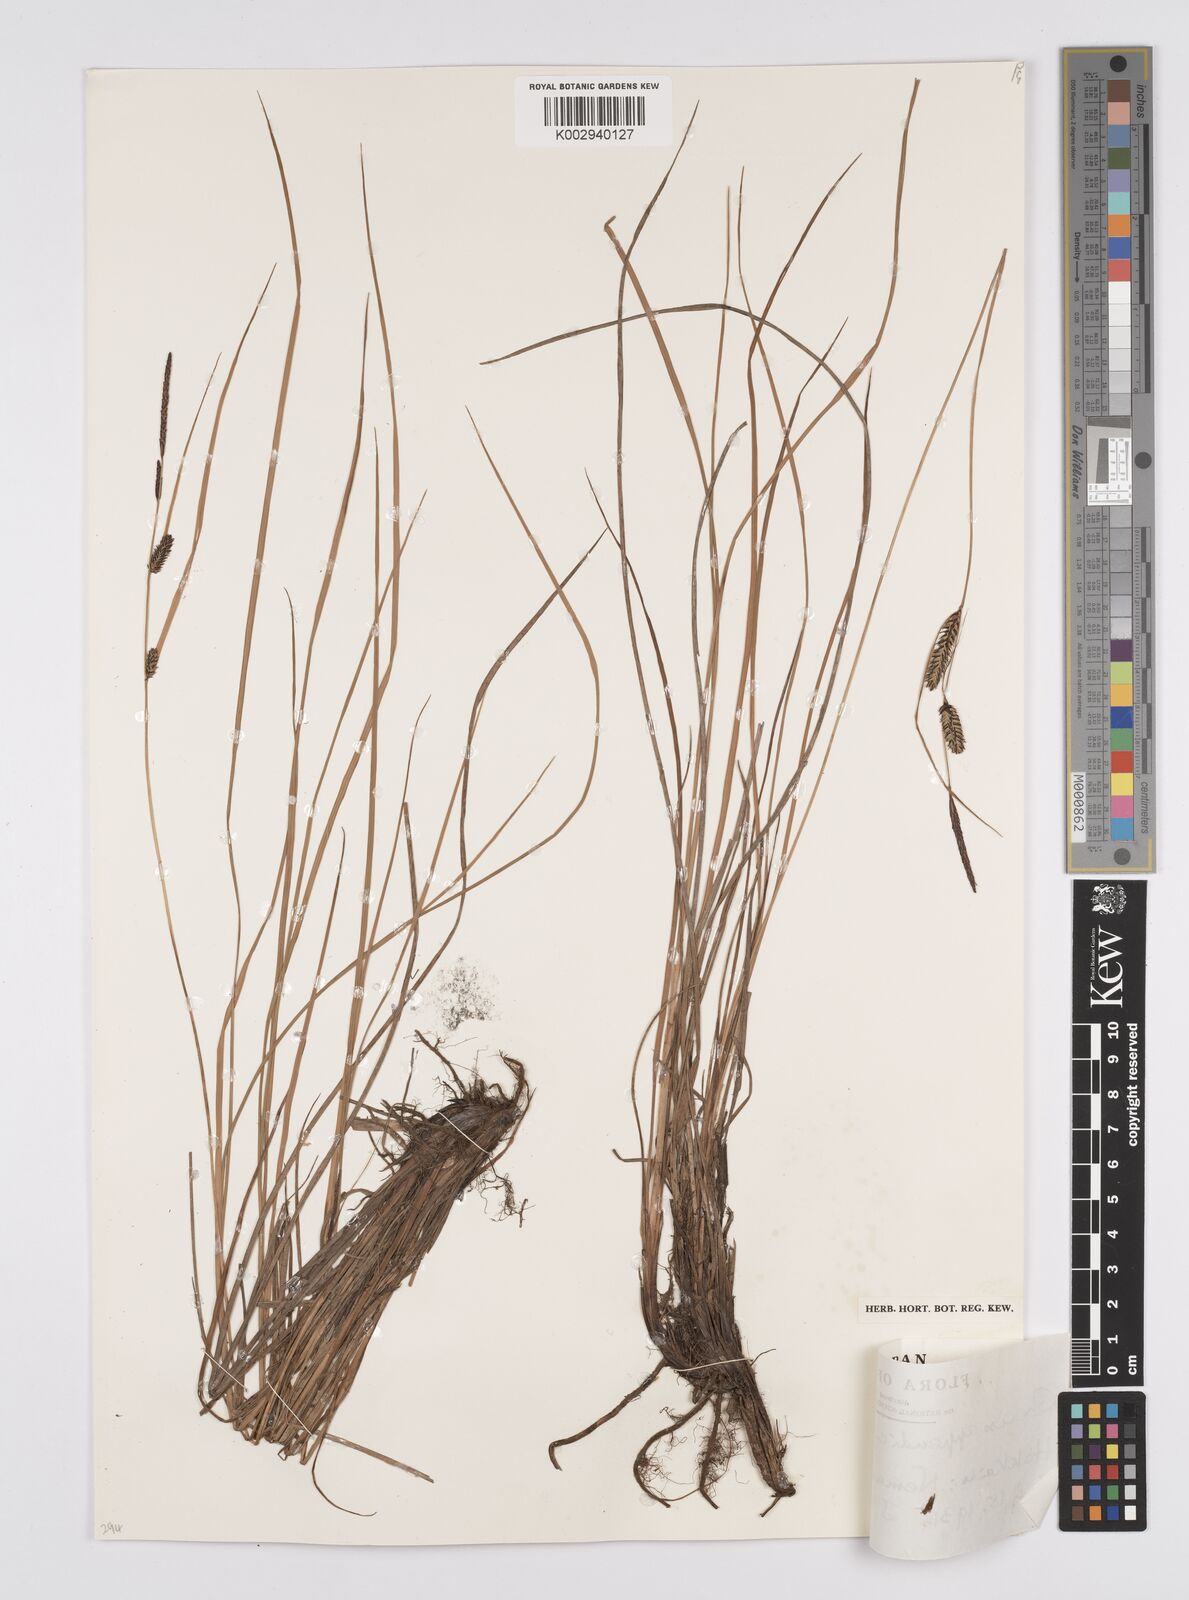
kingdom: Plantae
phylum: Tracheophyta
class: Liliopsida
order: Poales
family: Cyperaceae
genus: Carex
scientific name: Carex appendiculata
